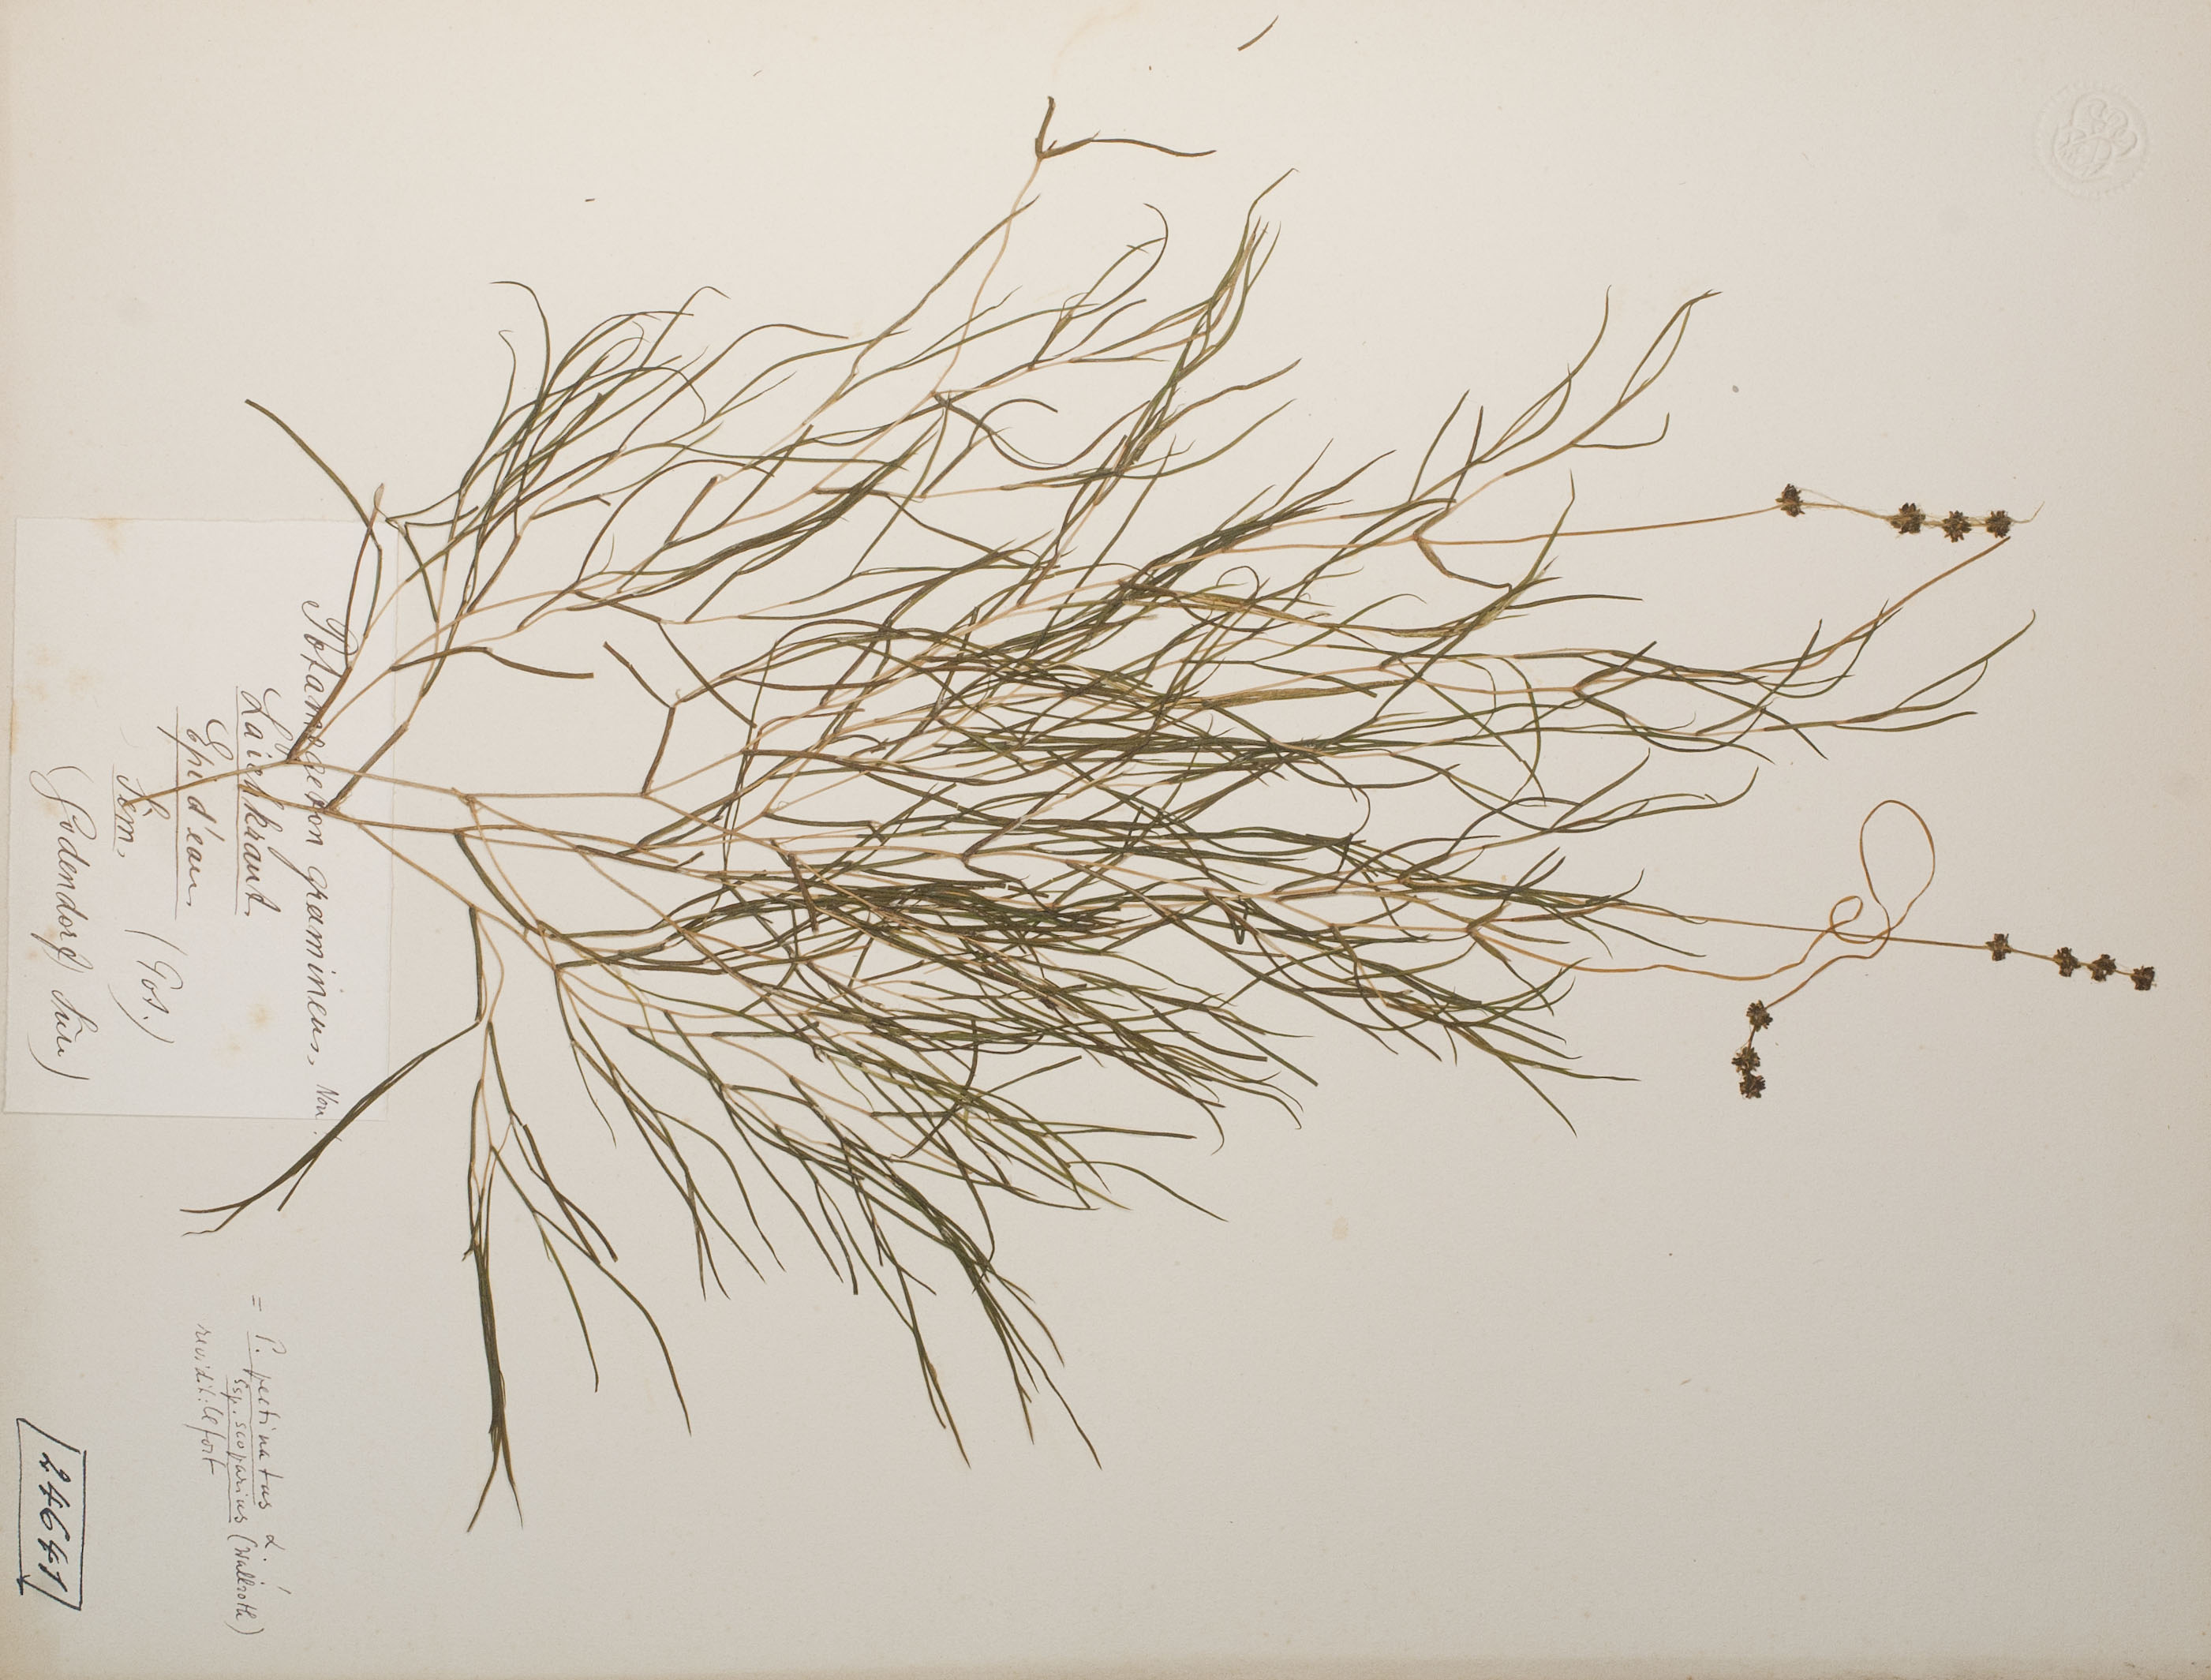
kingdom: Plantae
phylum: Tracheophyta
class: Liliopsida
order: Alismatales
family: Potamogetonaceae
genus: Stuckenia
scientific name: Stuckenia pectinata
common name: Sago pondweed
